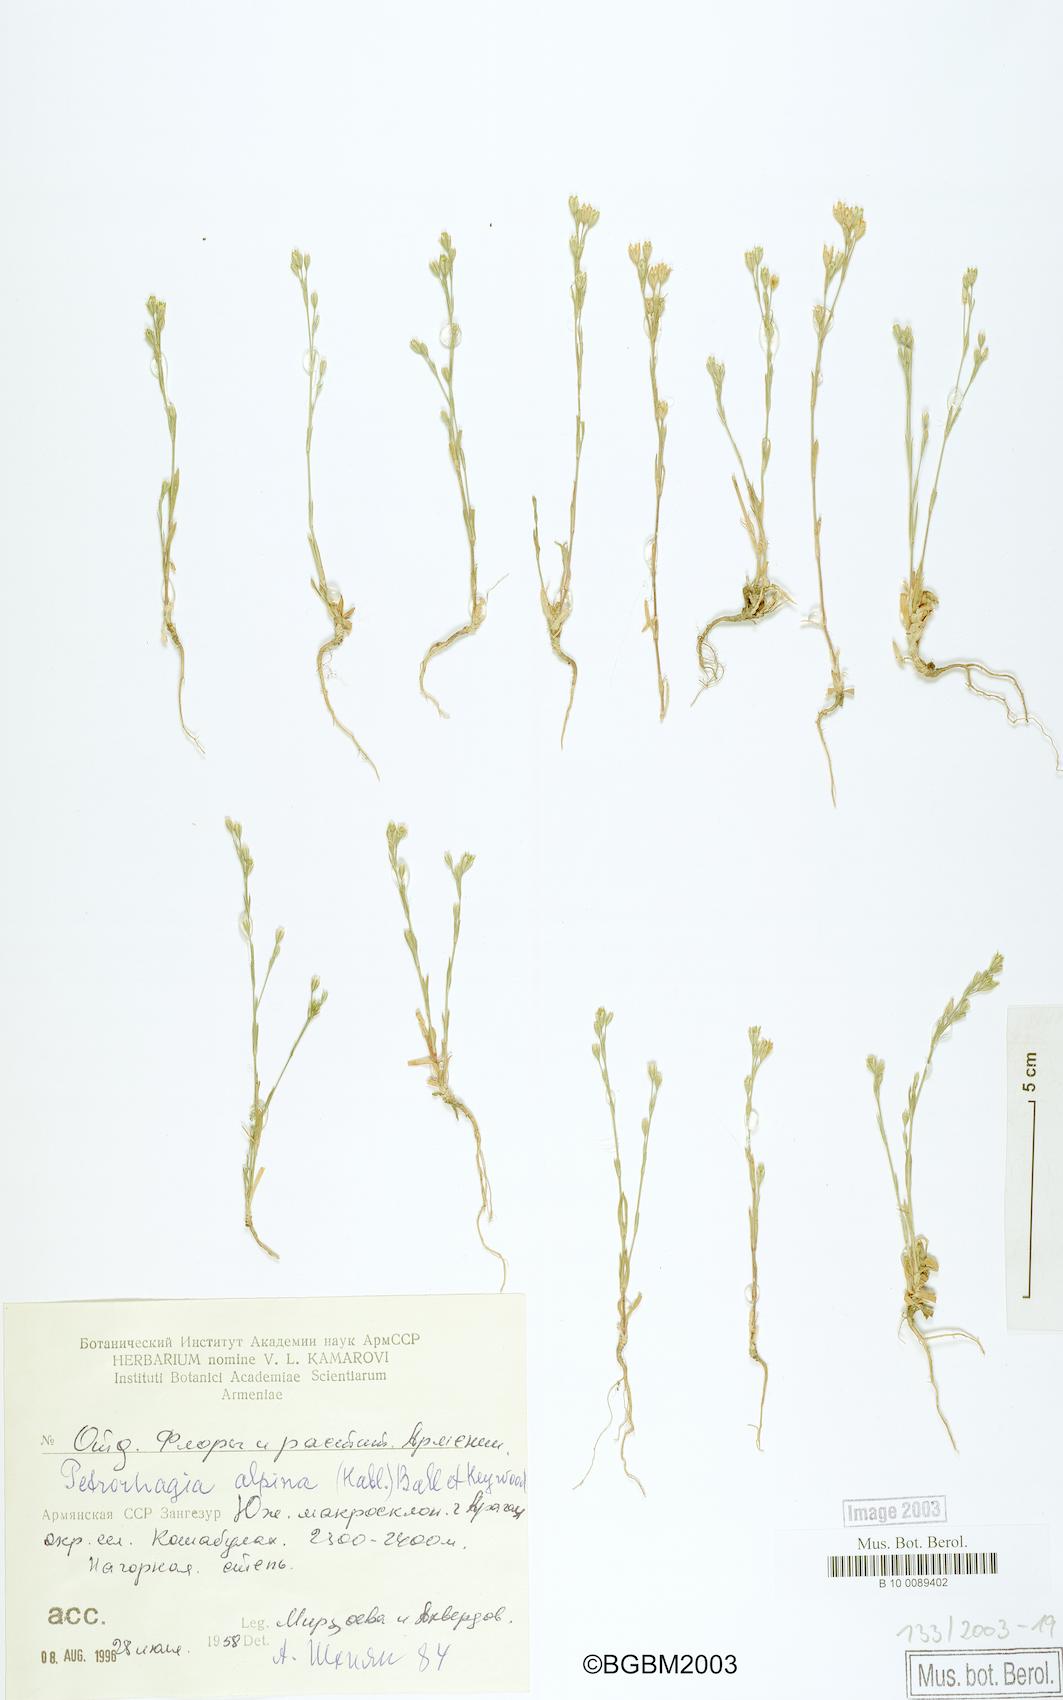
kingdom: Plantae
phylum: Tracheophyta
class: Magnoliopsida
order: Caryophyllales
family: Caryophyllaceae
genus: Petrorhagia
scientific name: Petrorhagia alpina
